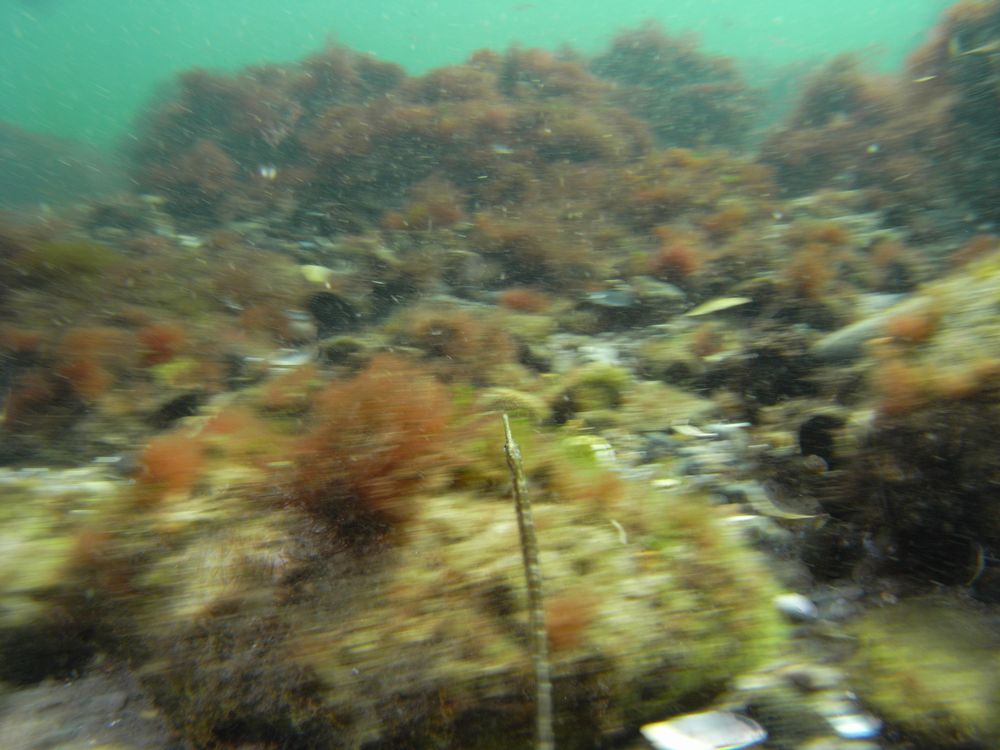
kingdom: Animalia
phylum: Chordata
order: Syngnathiformes
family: Syngnathidae
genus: Syngnathus
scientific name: Syngnathus rostellatus
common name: Nilsson's pipefish
